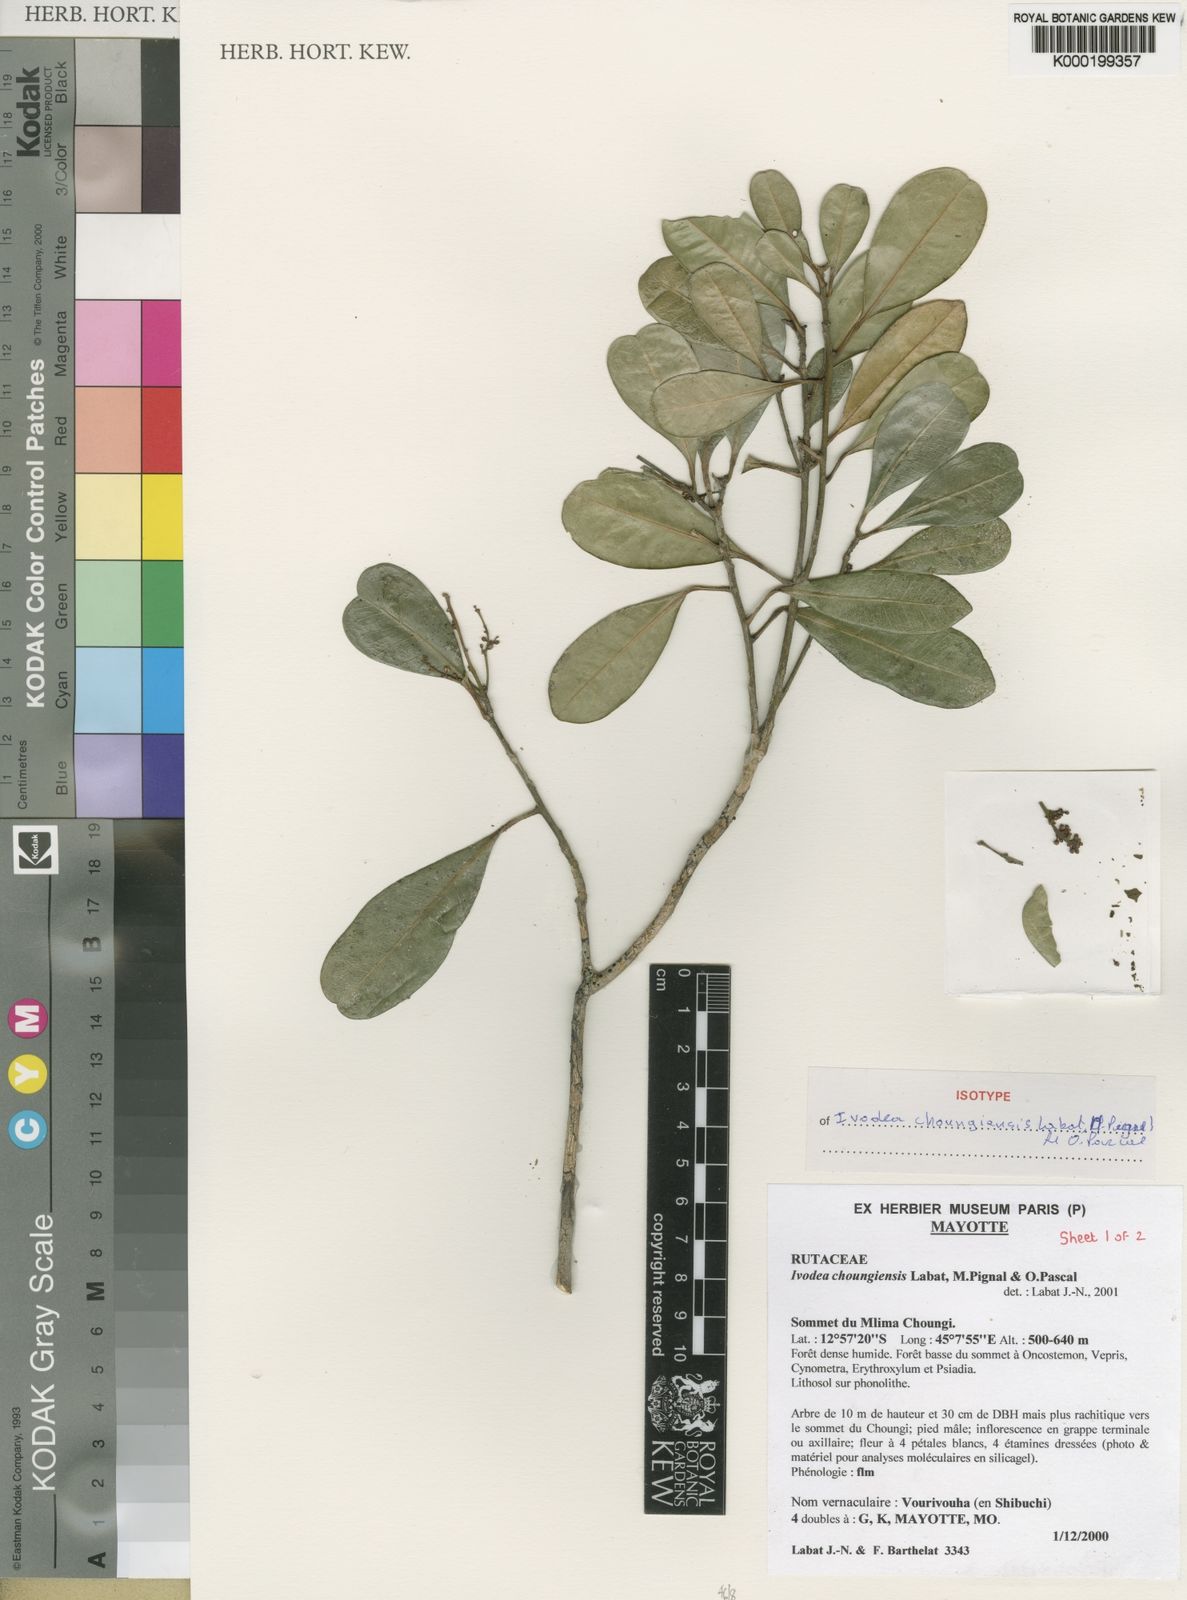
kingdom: Plantae
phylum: Tracheophyta
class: Magnoliopsida
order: Sapindales
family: Rutaceae
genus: Ivodea
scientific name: Ivodea choungiensis
